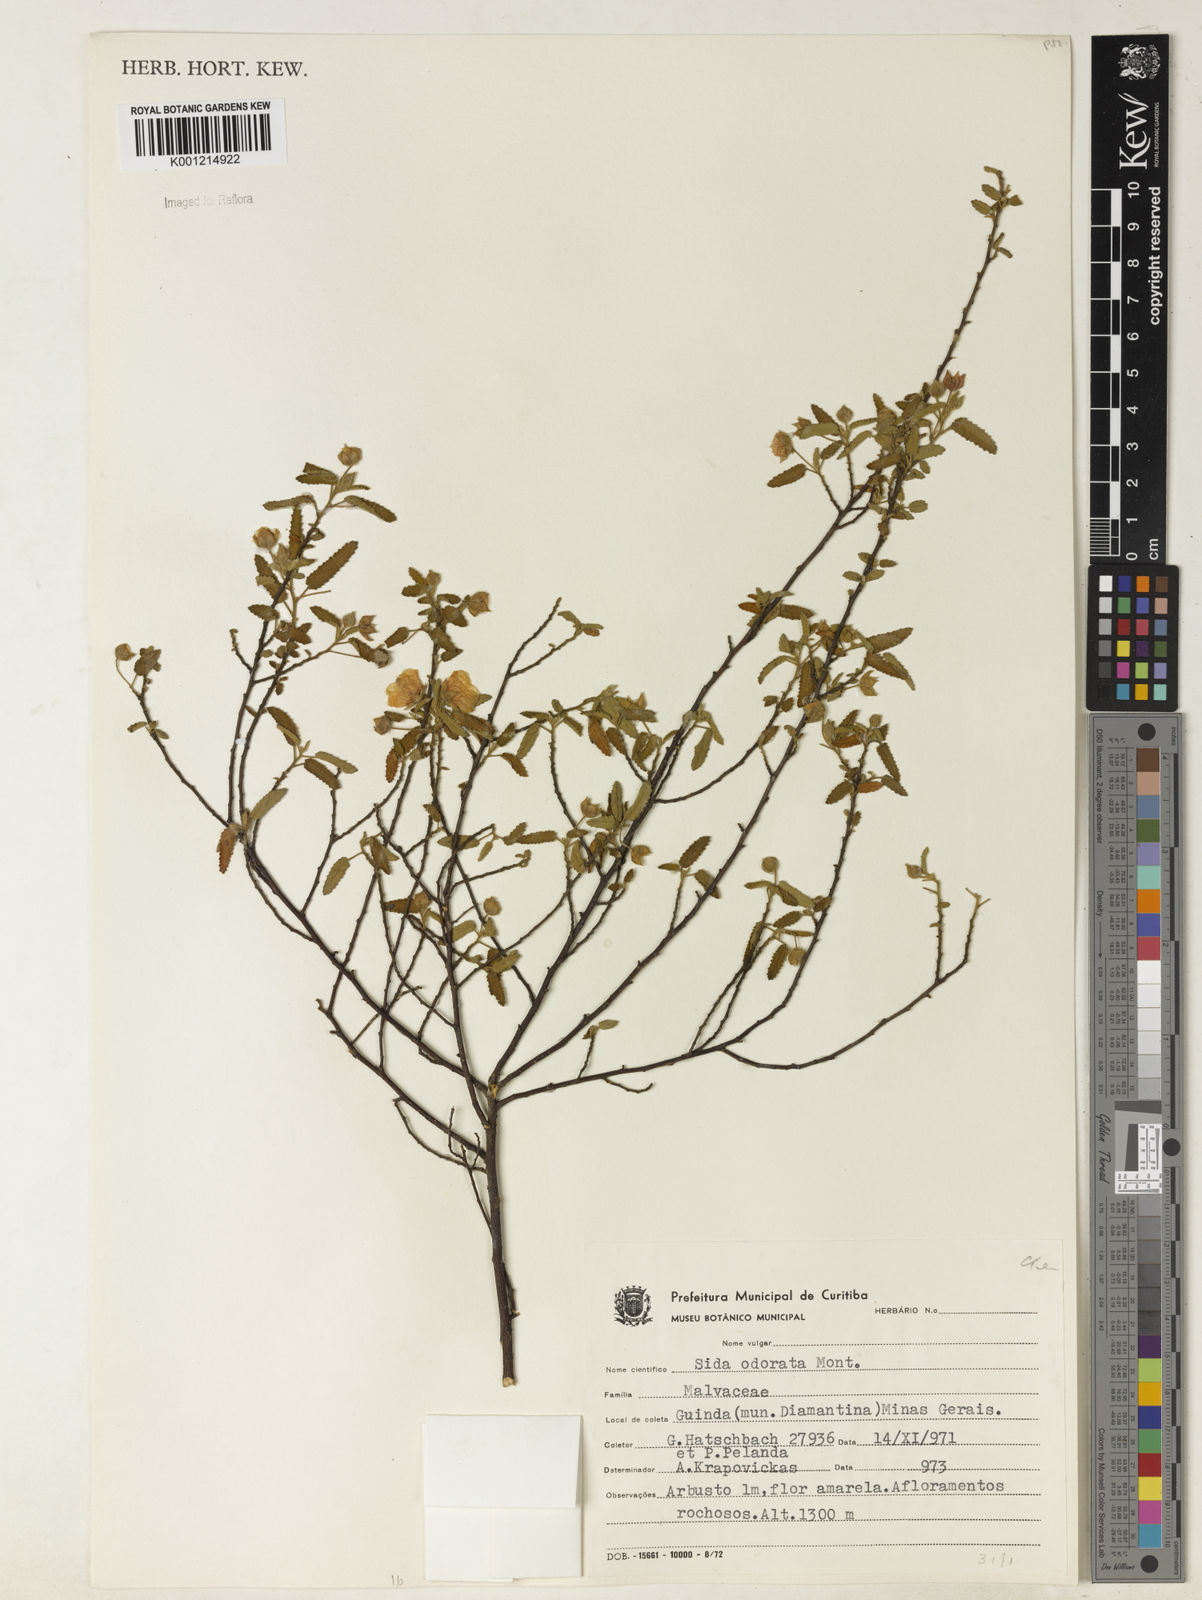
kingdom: Plantae
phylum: Tracheophyta
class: Magnoliopsida
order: Malvales
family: Malvaceae
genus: Sida
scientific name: Sida
